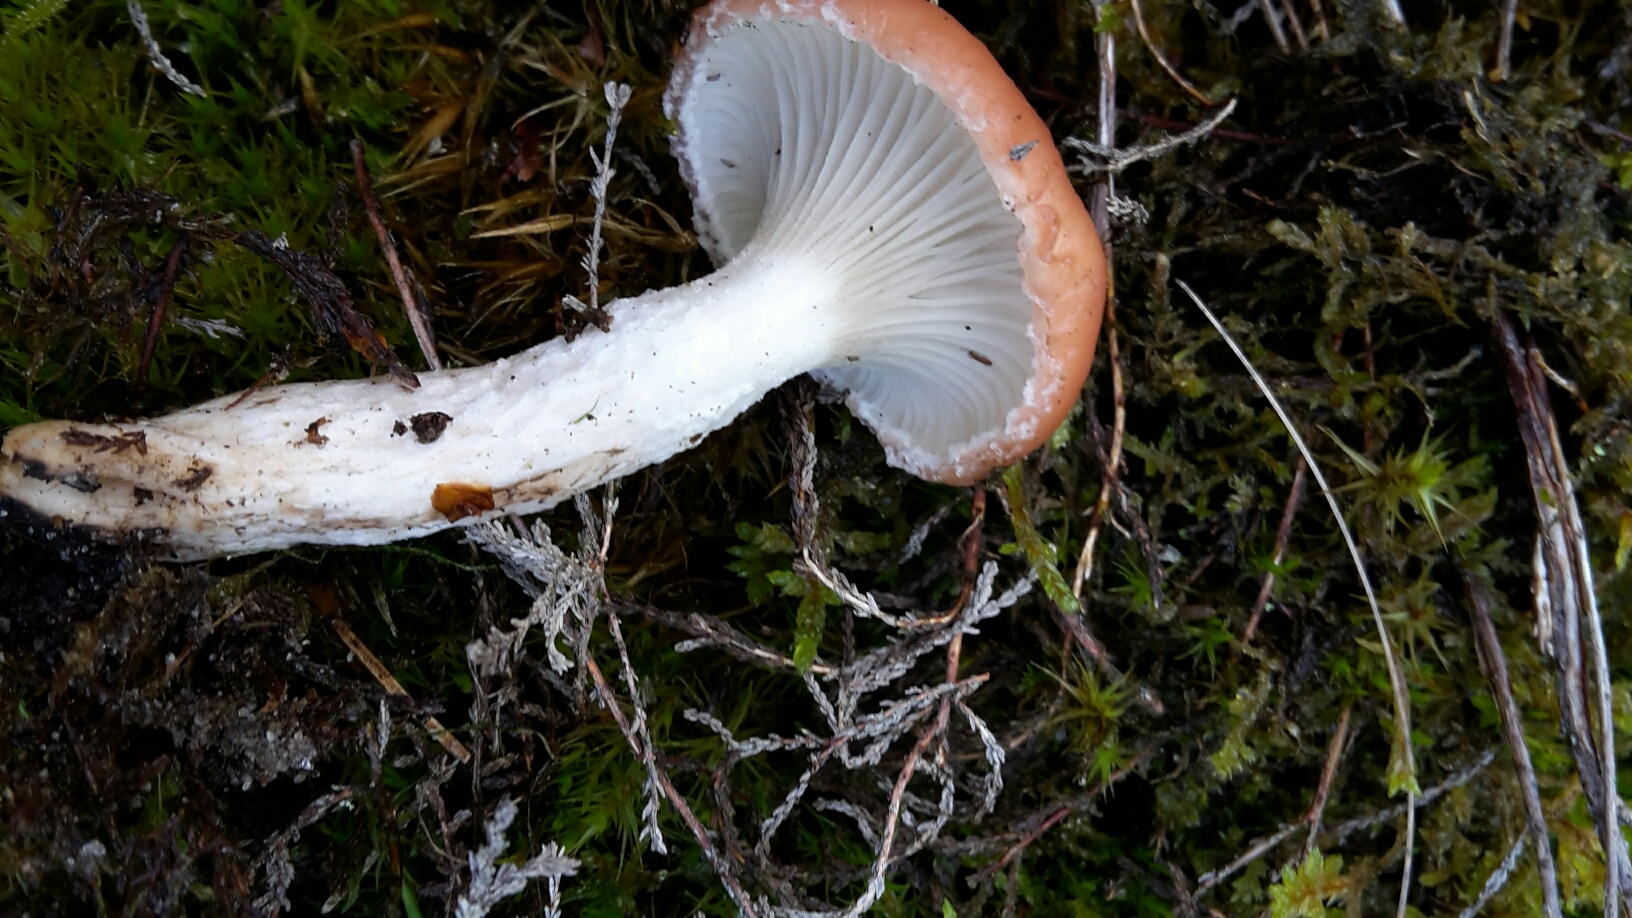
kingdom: Fungi
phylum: Basidiomycota
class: Agaricomycetes
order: Boletales
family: Gomphidiaceae
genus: Gomphidius
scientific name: Gomphidius roseus
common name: rosenrød slimslør
